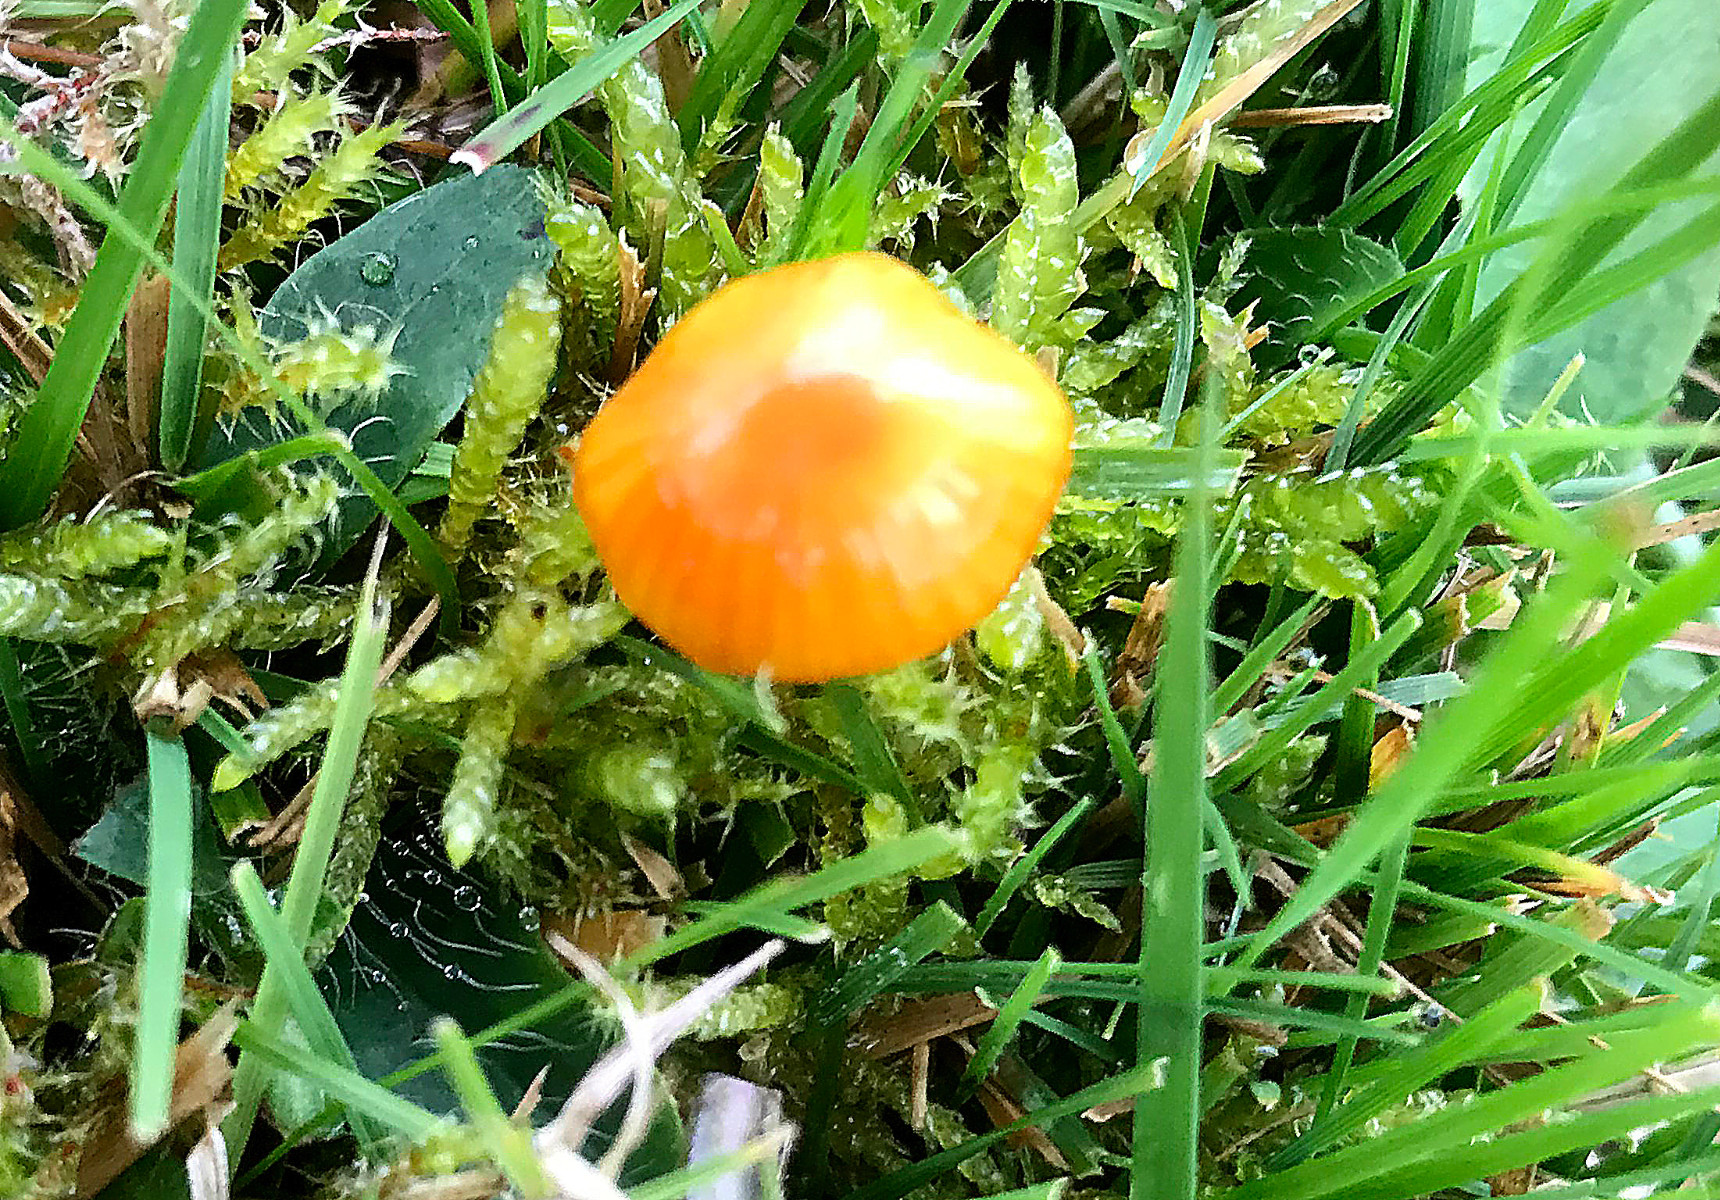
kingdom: Fungi
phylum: Basidiomycota
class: Agaricomycetes
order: Agaricales
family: Hygrophoraceae
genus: Hygrocybe
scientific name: Hygrocybe
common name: vokshat
